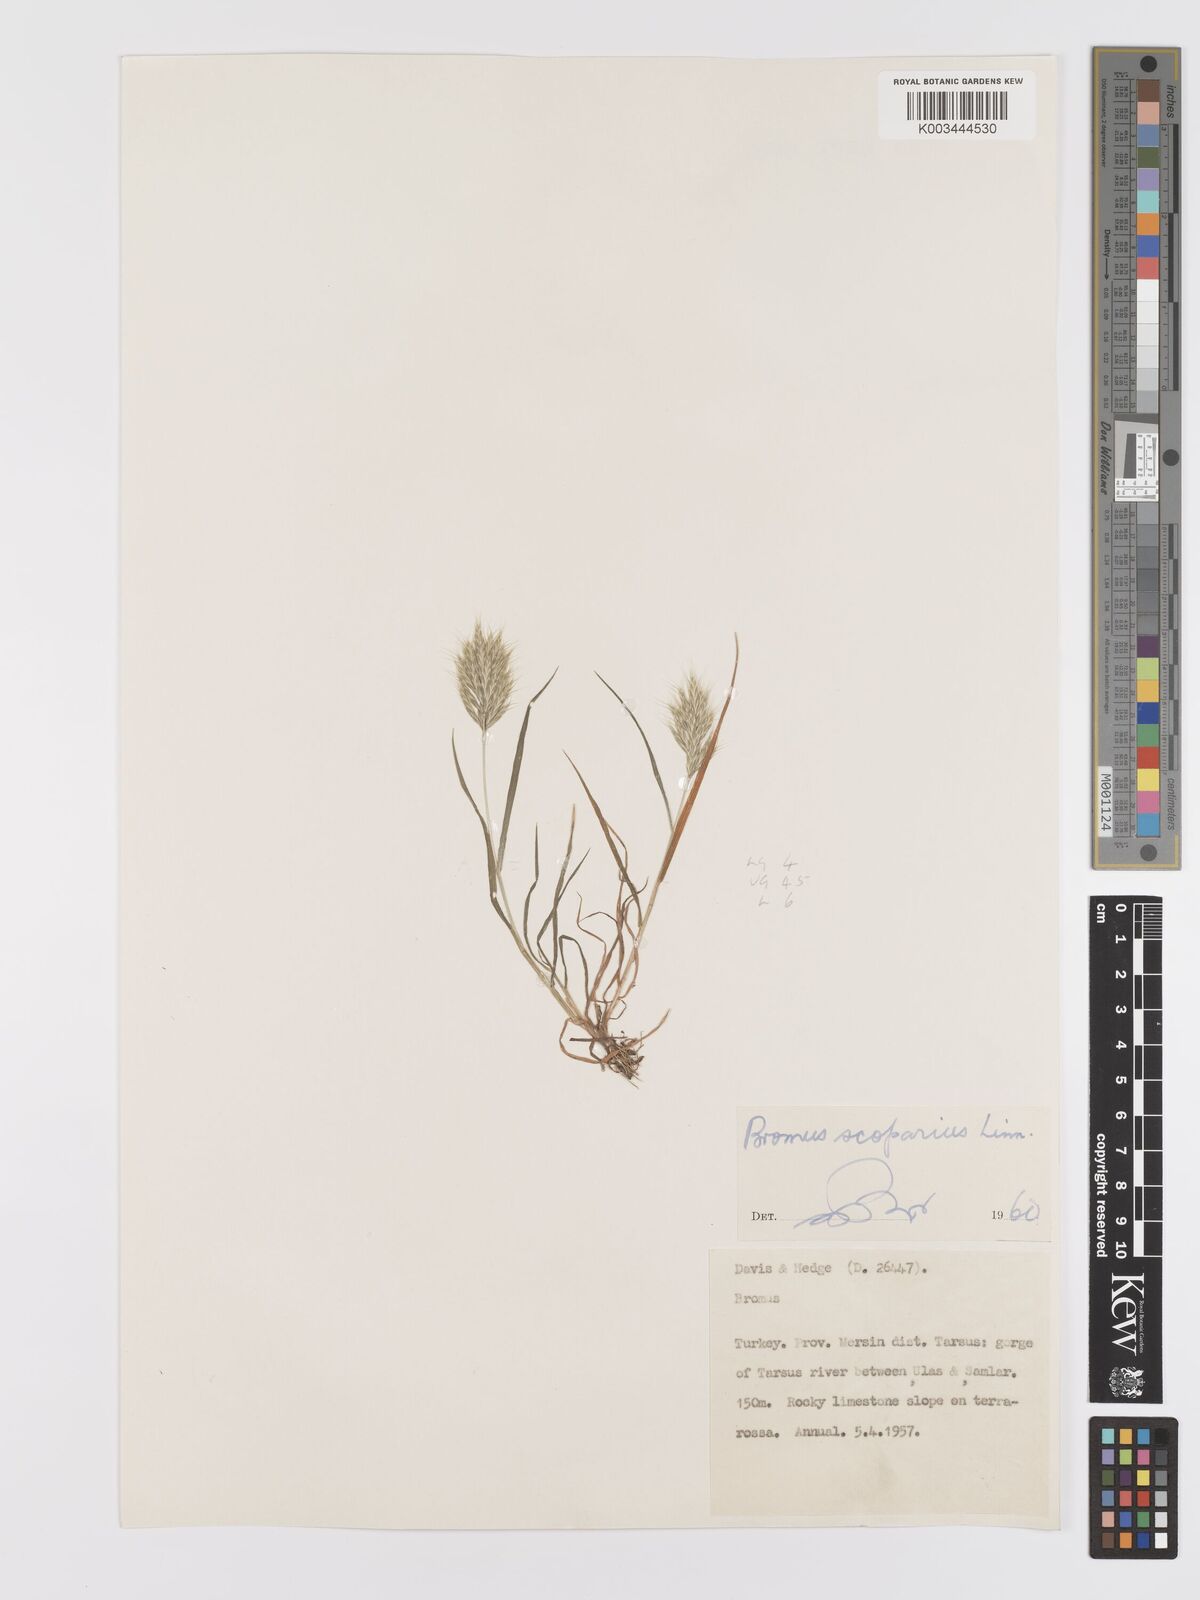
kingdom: Plantae
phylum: Tracheophyta
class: Liliopsida
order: Poales
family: Poaceae
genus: Bromus
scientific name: Bromus scoparius
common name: Broom brome
